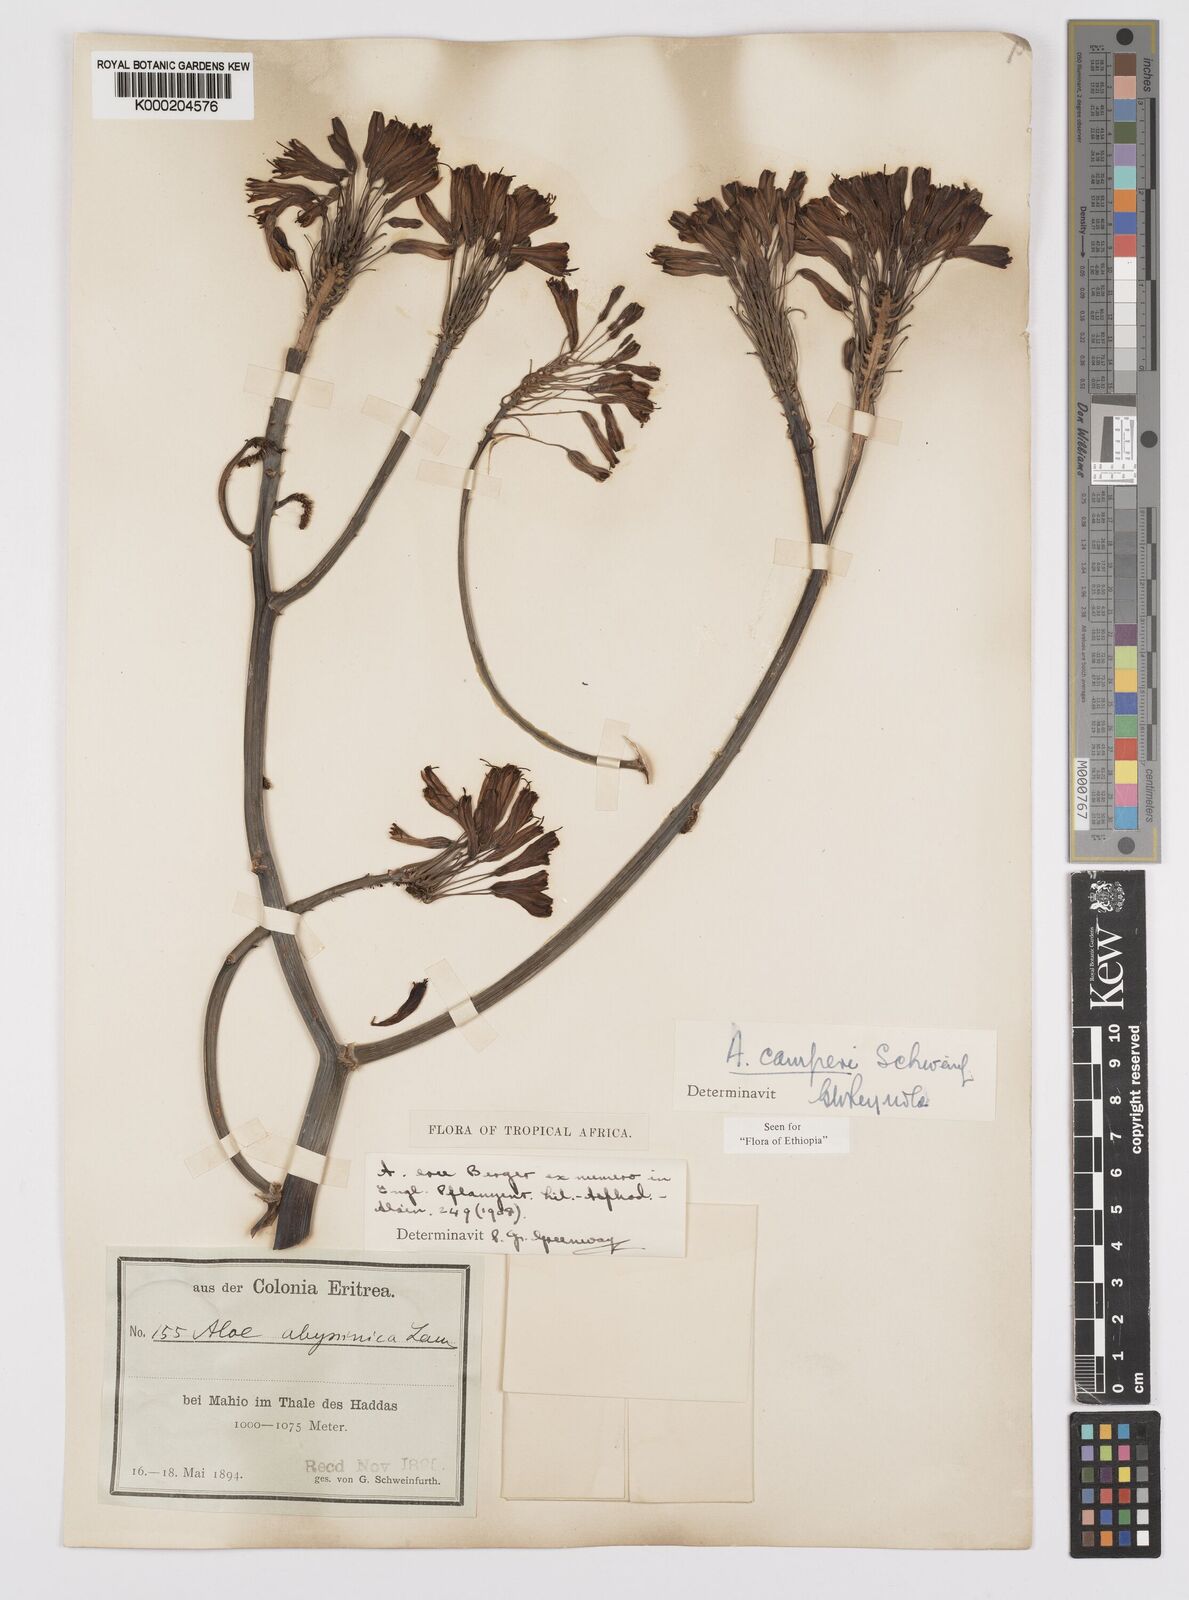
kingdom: Plantae
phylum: Tracheophyta
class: Liliopsida
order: Asparagales
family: Asphodelaceae
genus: Aloe
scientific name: Aloe camperi
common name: Camper's aloe
